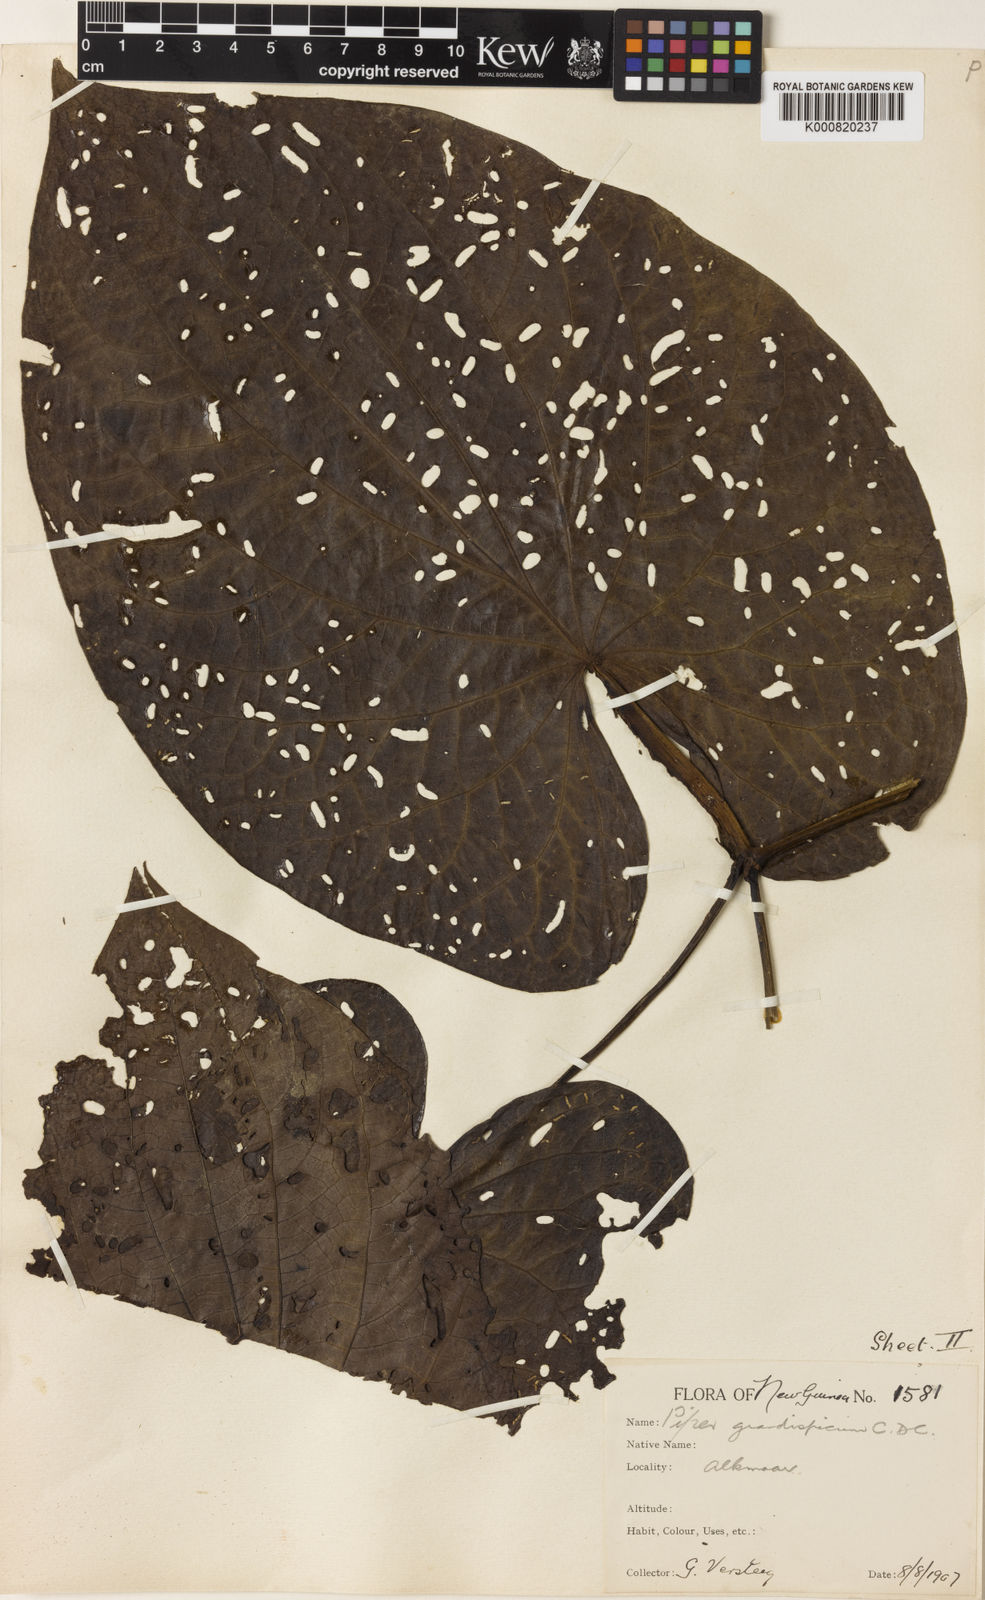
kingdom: Plantae
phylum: Tracheophyta
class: Magnoliopsida
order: Piperales
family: Piperaceae
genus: Piper
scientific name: Piper grandispicum
